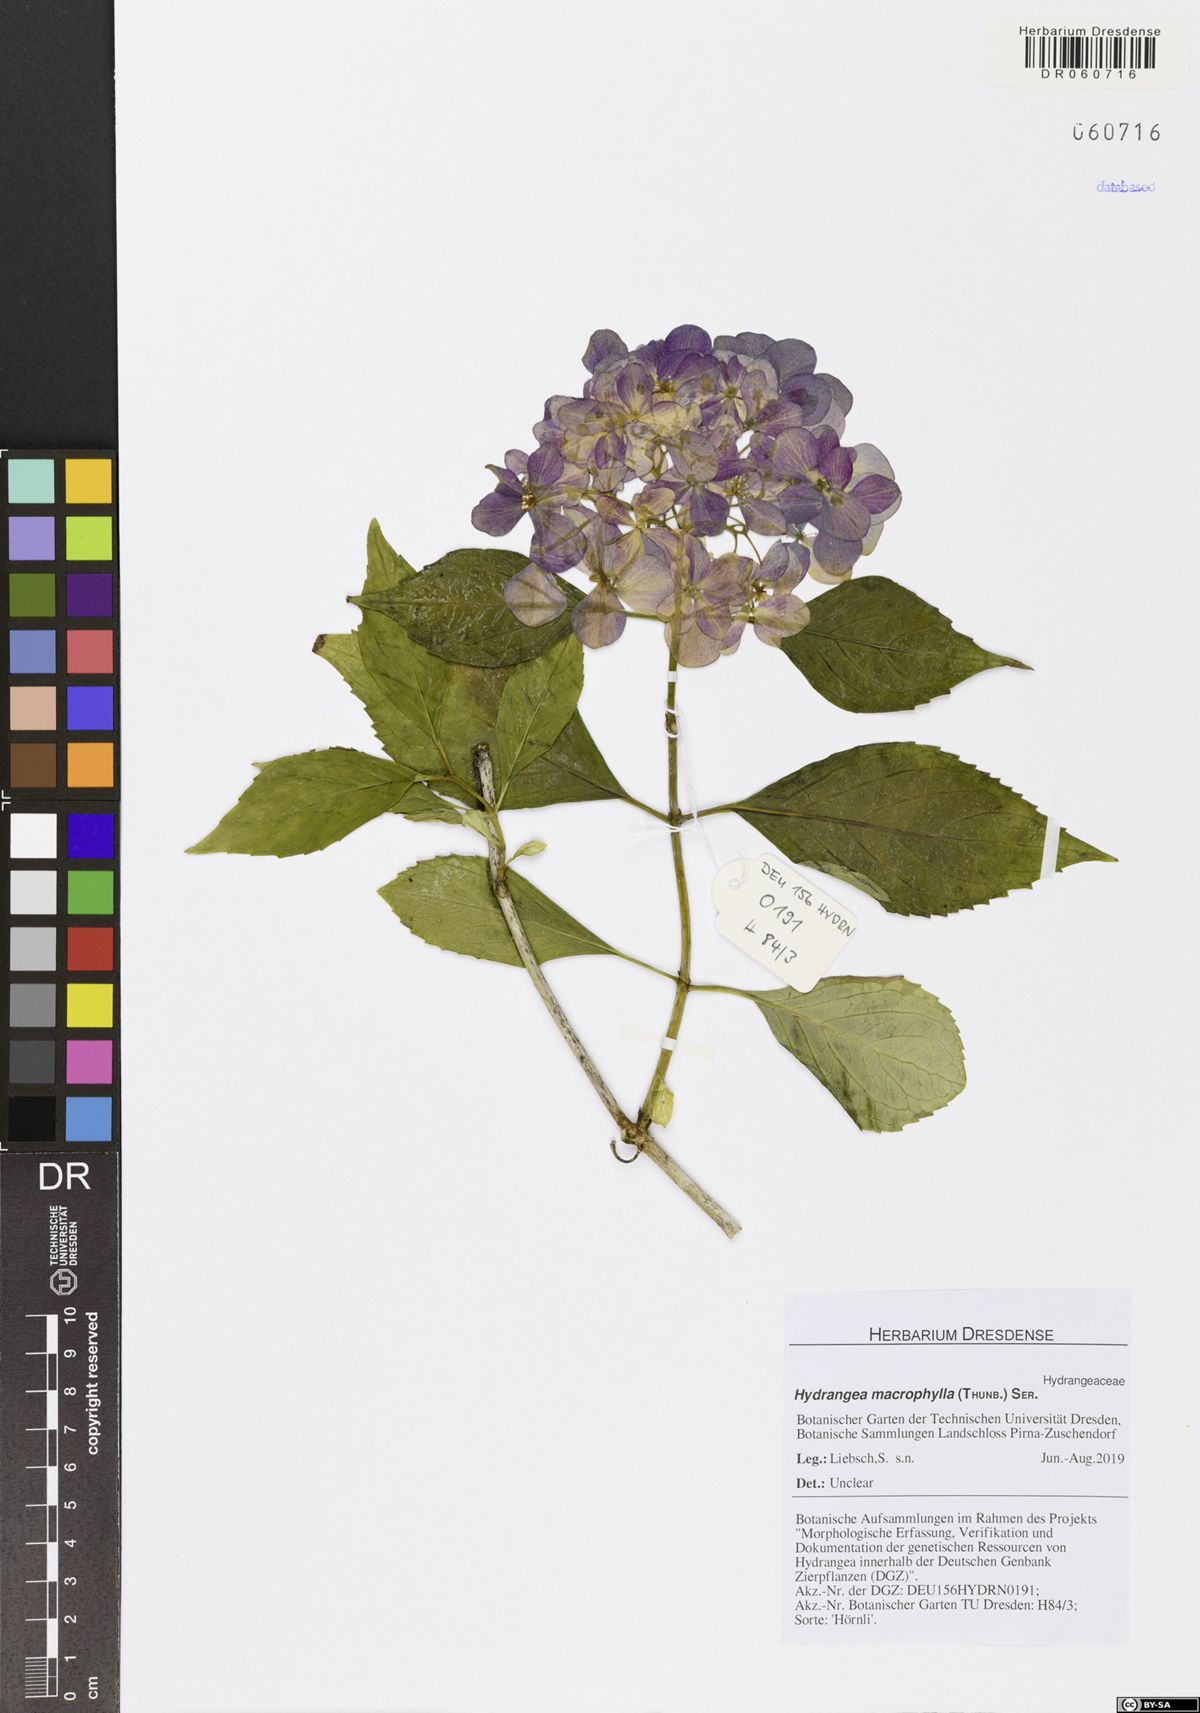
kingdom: Plantae
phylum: Tracheophyta
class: Magnoliopsida
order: Cornales
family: Hydrangeaceae
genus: Hydrangea
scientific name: Hydrangea macrophylla
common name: Hydrangea
